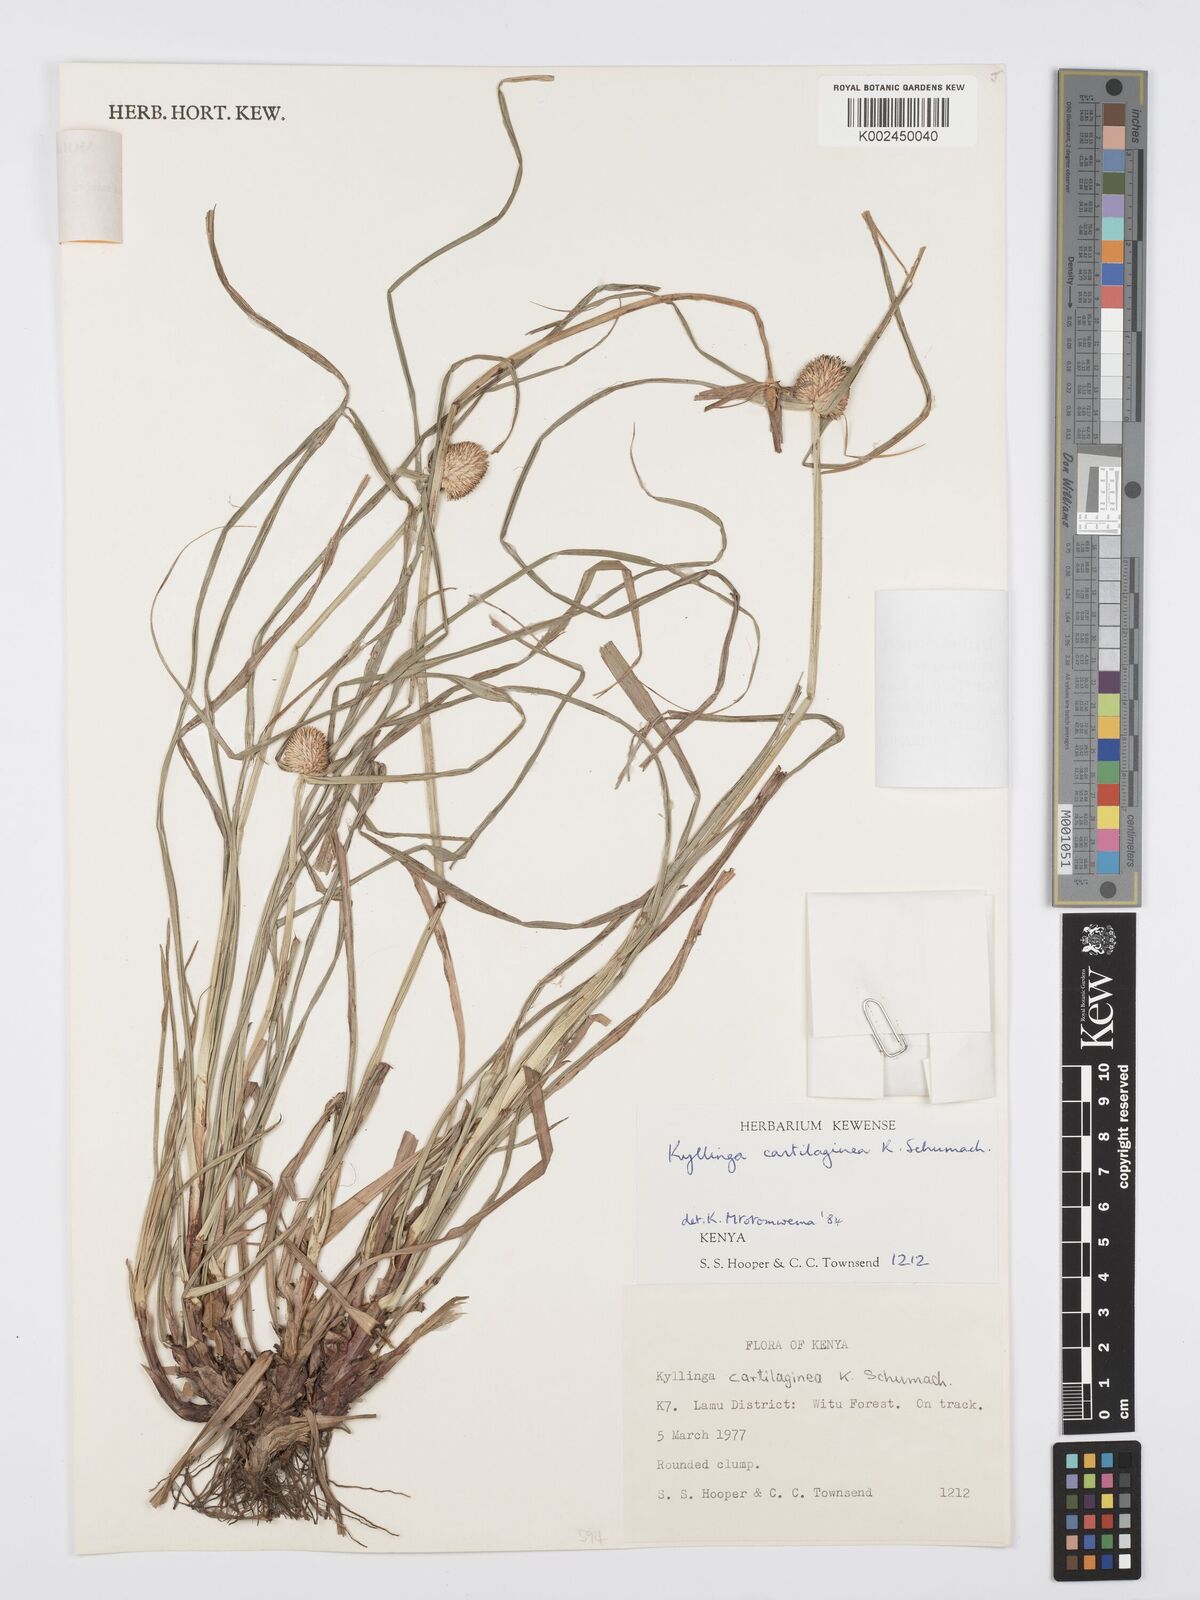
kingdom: Plantae
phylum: Tracheophyta
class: Liliopsida
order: Poales
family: Cyperaceae
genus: Cyperus
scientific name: Cyperus cartilagineus
